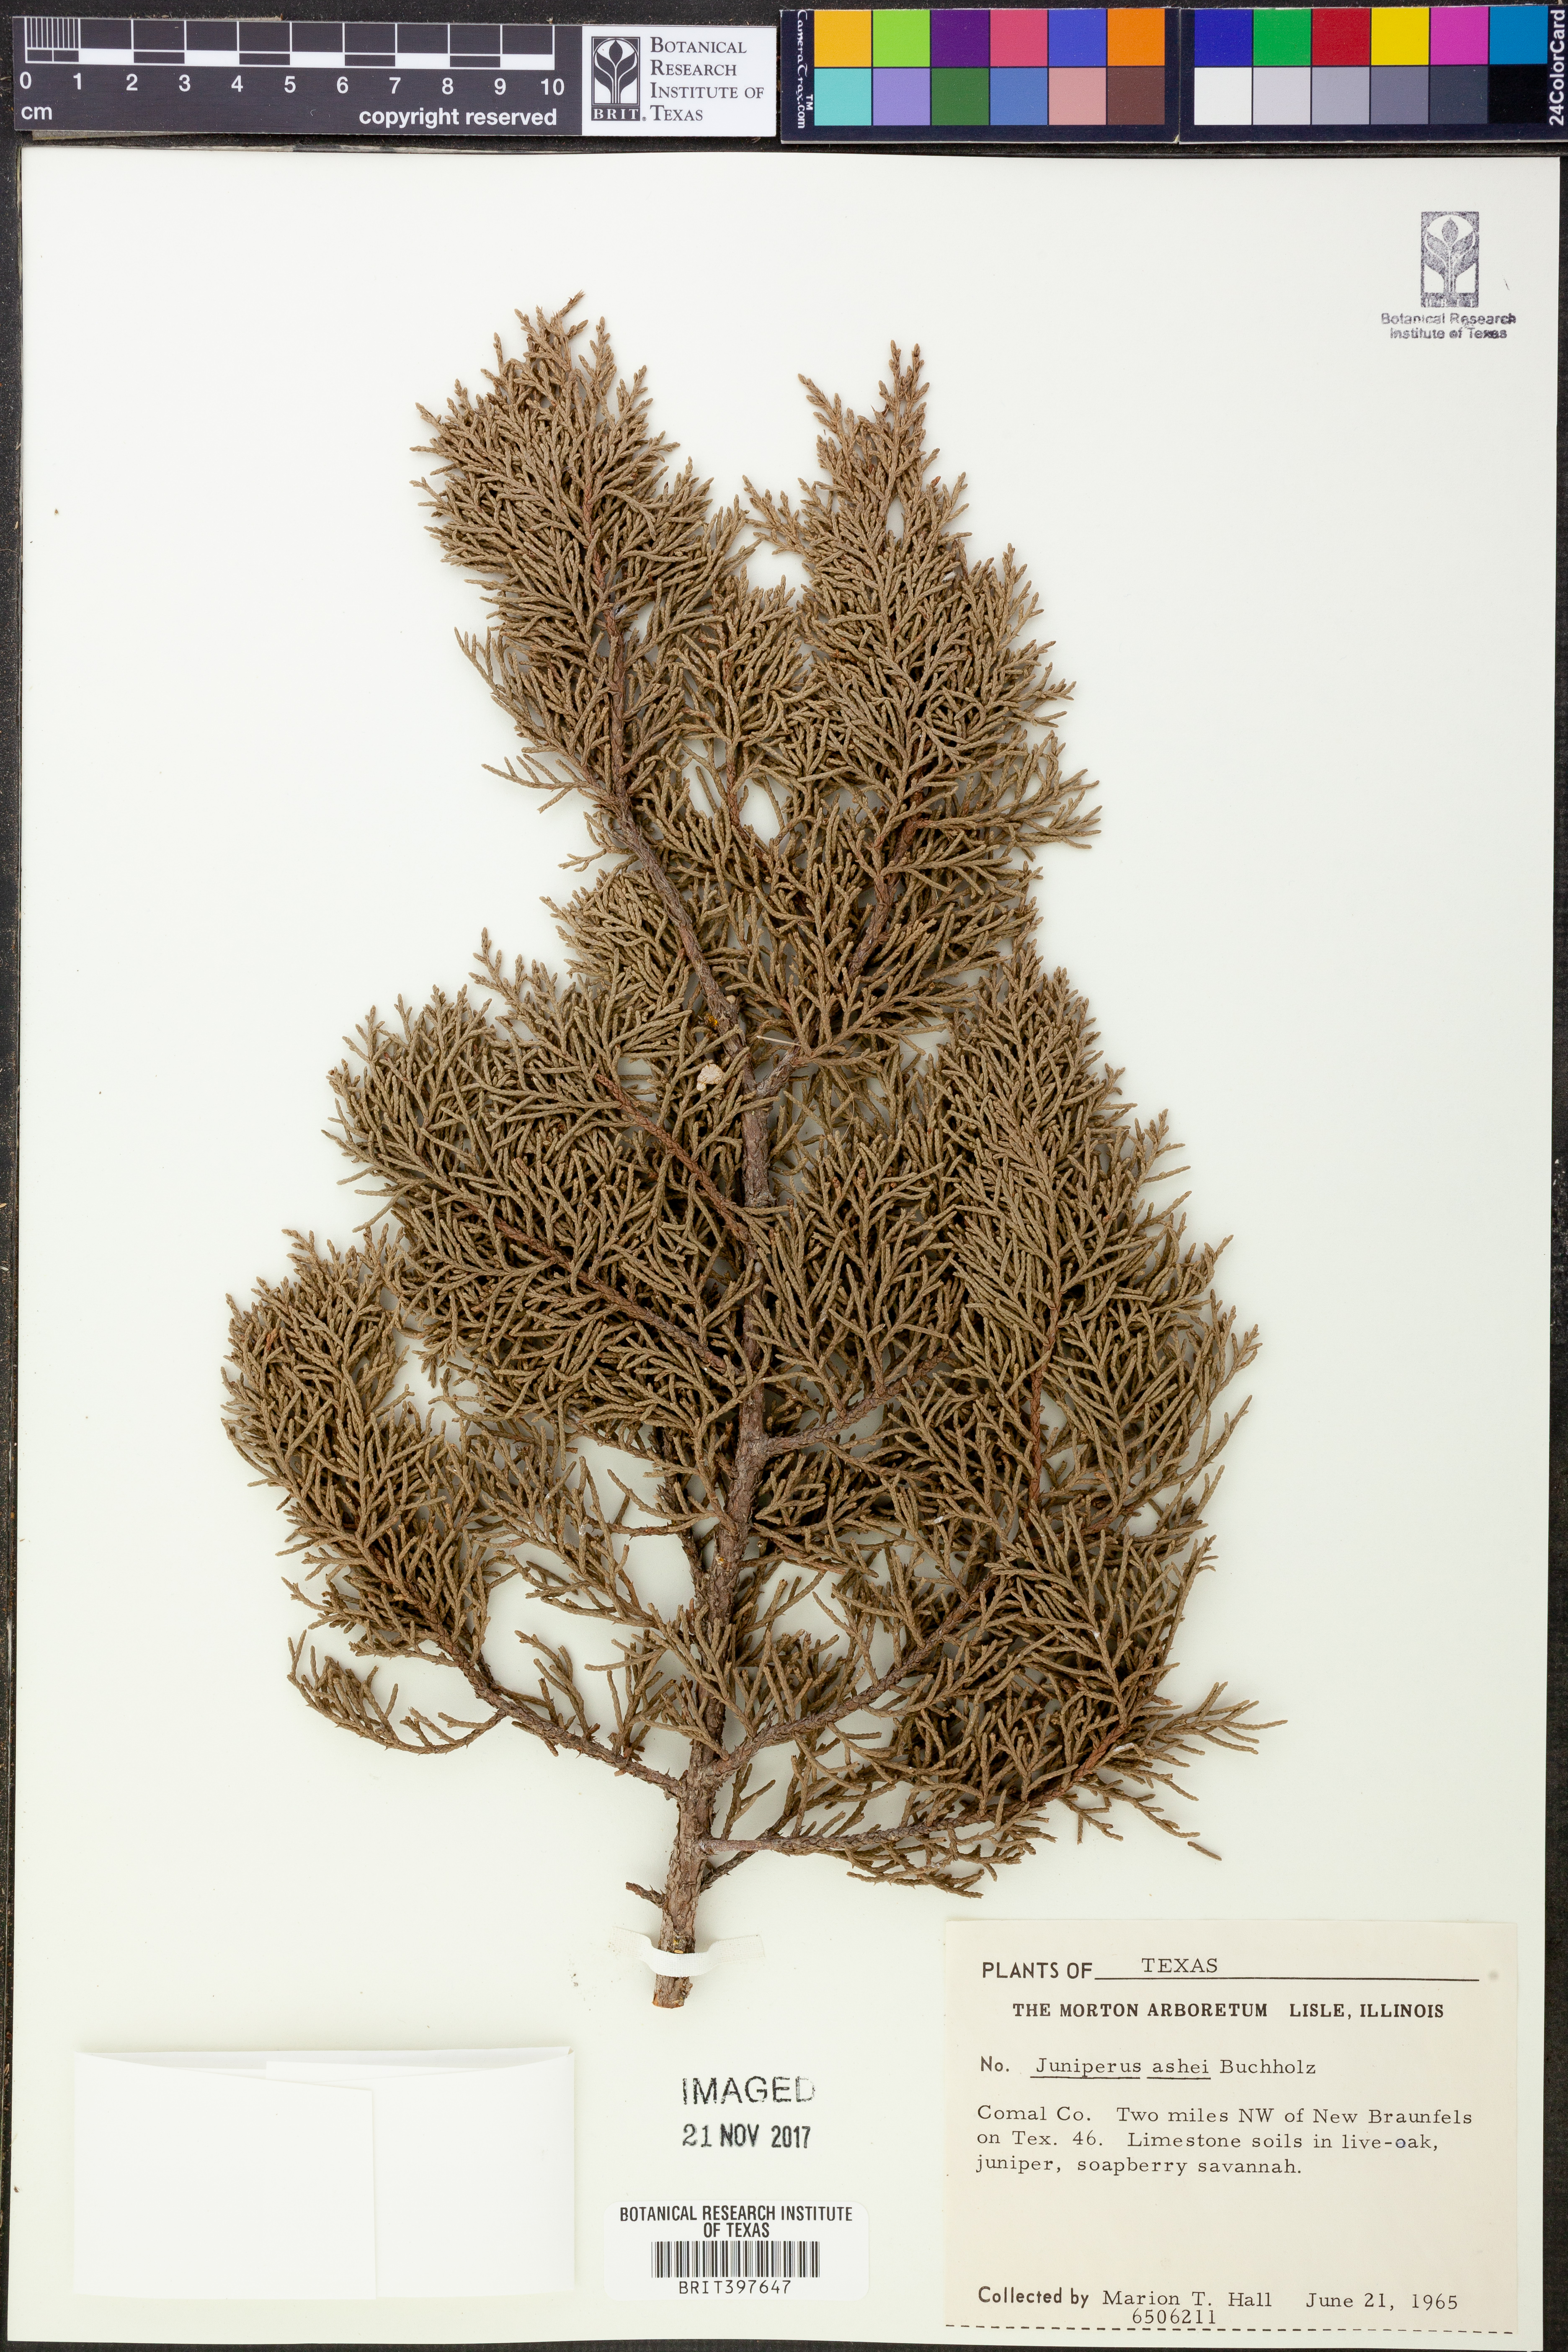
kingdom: Plantae
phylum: Tracheophyta
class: Pinopsida
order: Pinales
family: Cupressaceae
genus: Juniperus
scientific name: Juniperus ashei
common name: Mexican juniper
